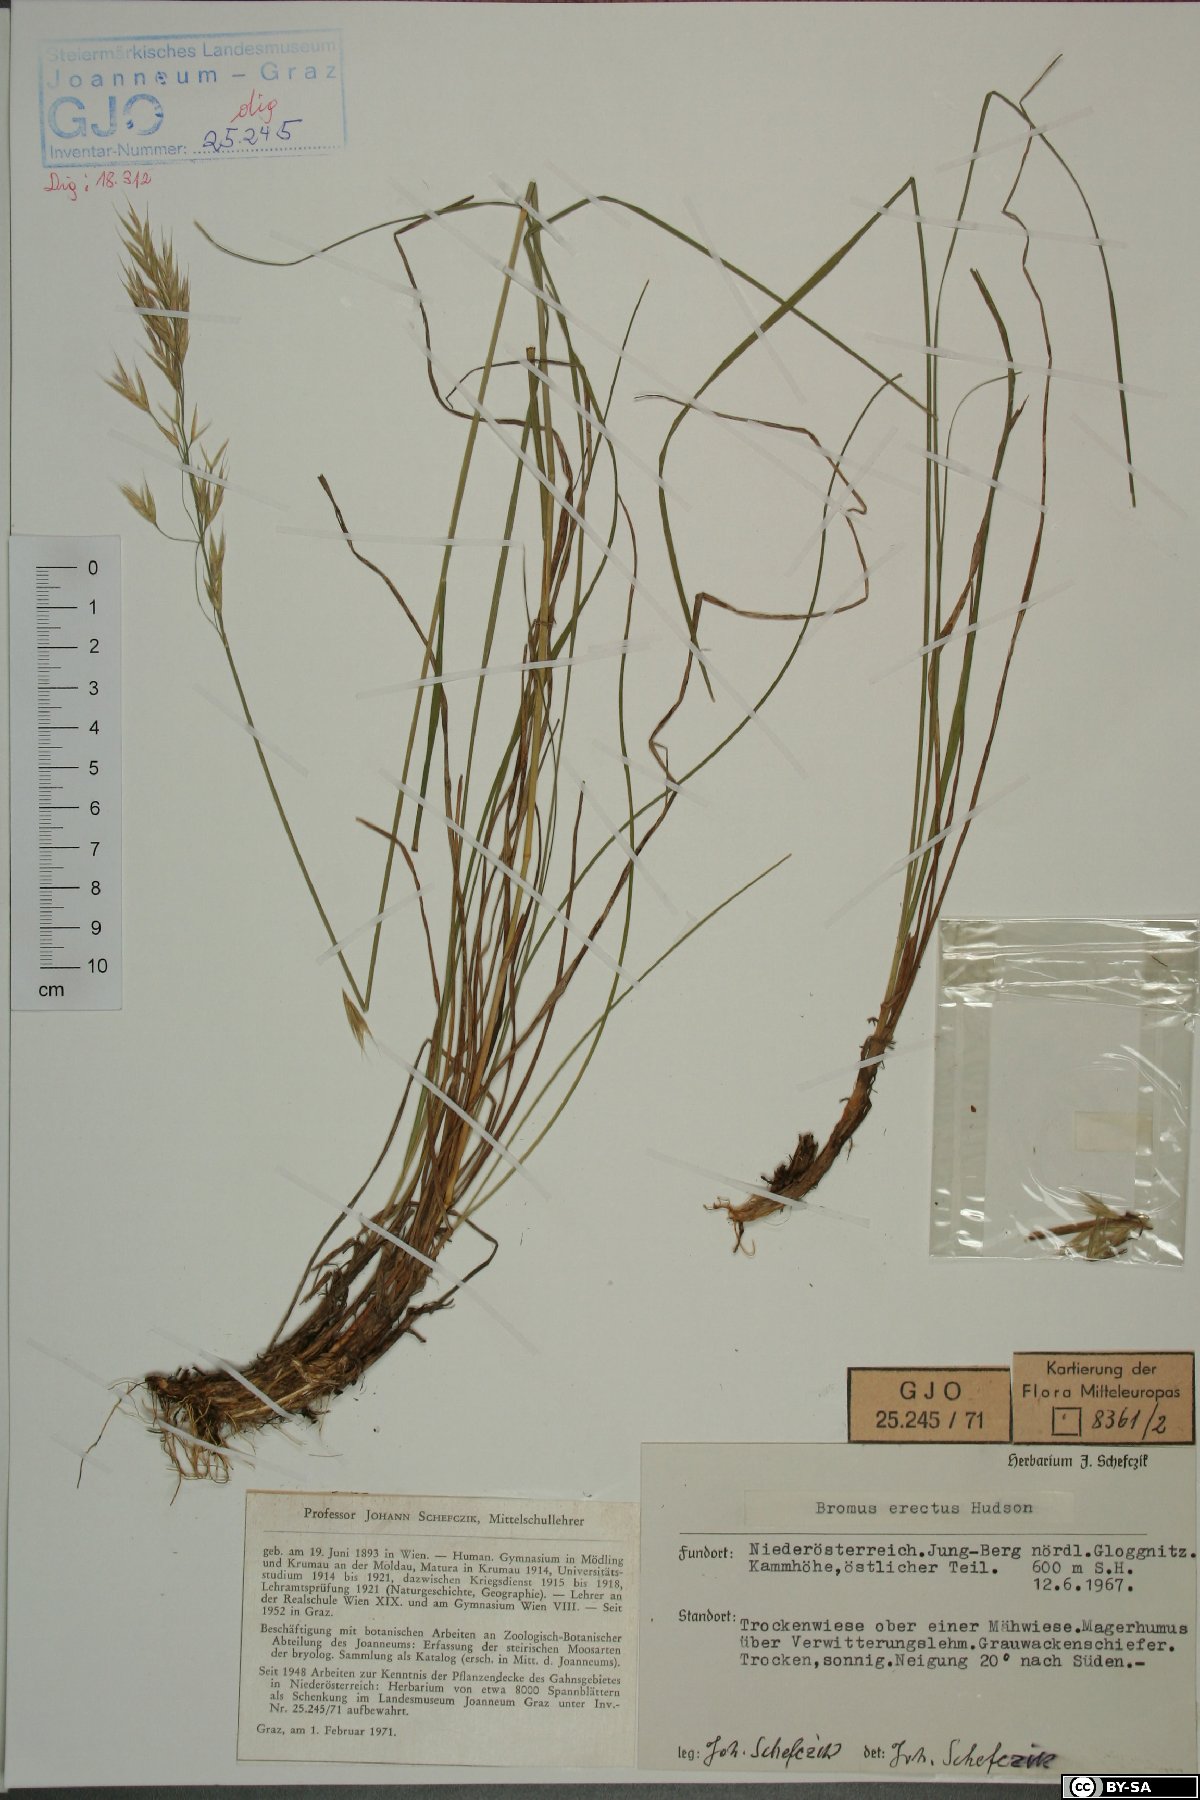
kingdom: Plantae
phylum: Tracheophyta
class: Liliopsida
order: Poales
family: Poaceae
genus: Bromus
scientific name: Bromus erectus
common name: Erect brome
